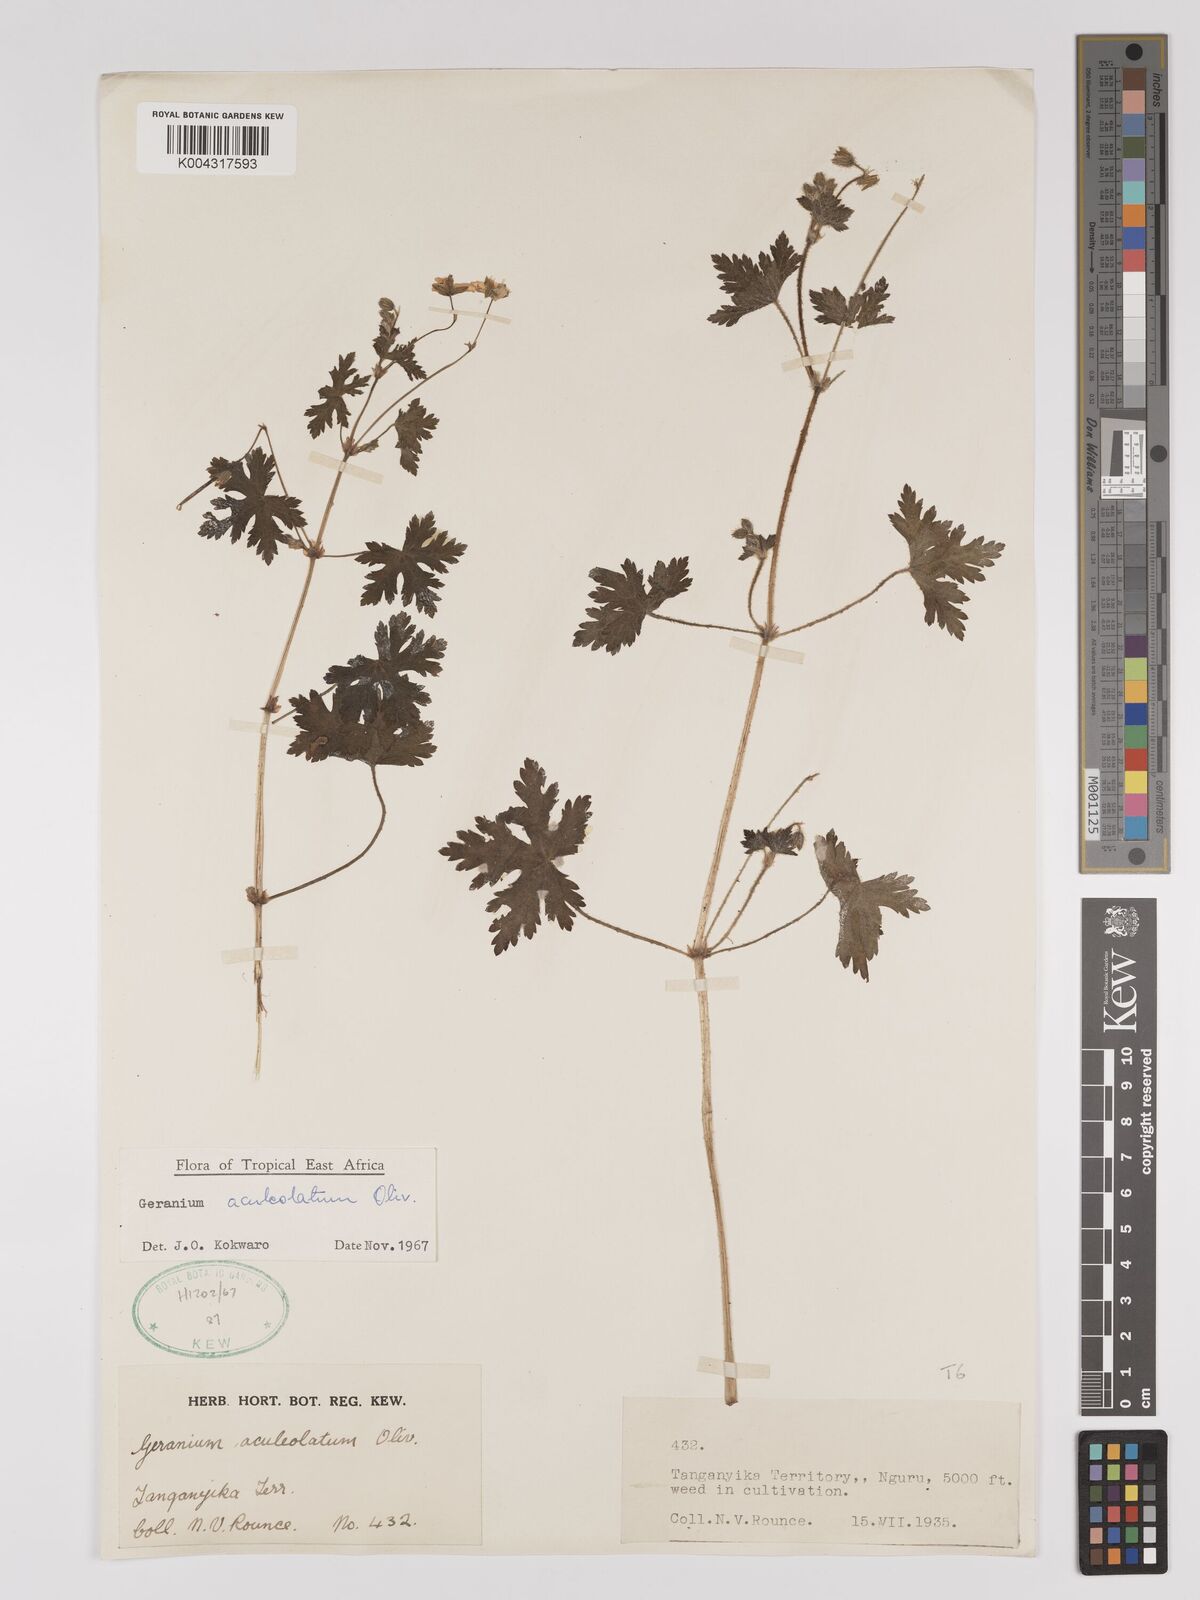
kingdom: Plantae
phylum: Tracheophyta
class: Magnoliopsida
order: Geraniales
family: Geraniaceae
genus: Geranium
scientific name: Geranium aculeolatum
